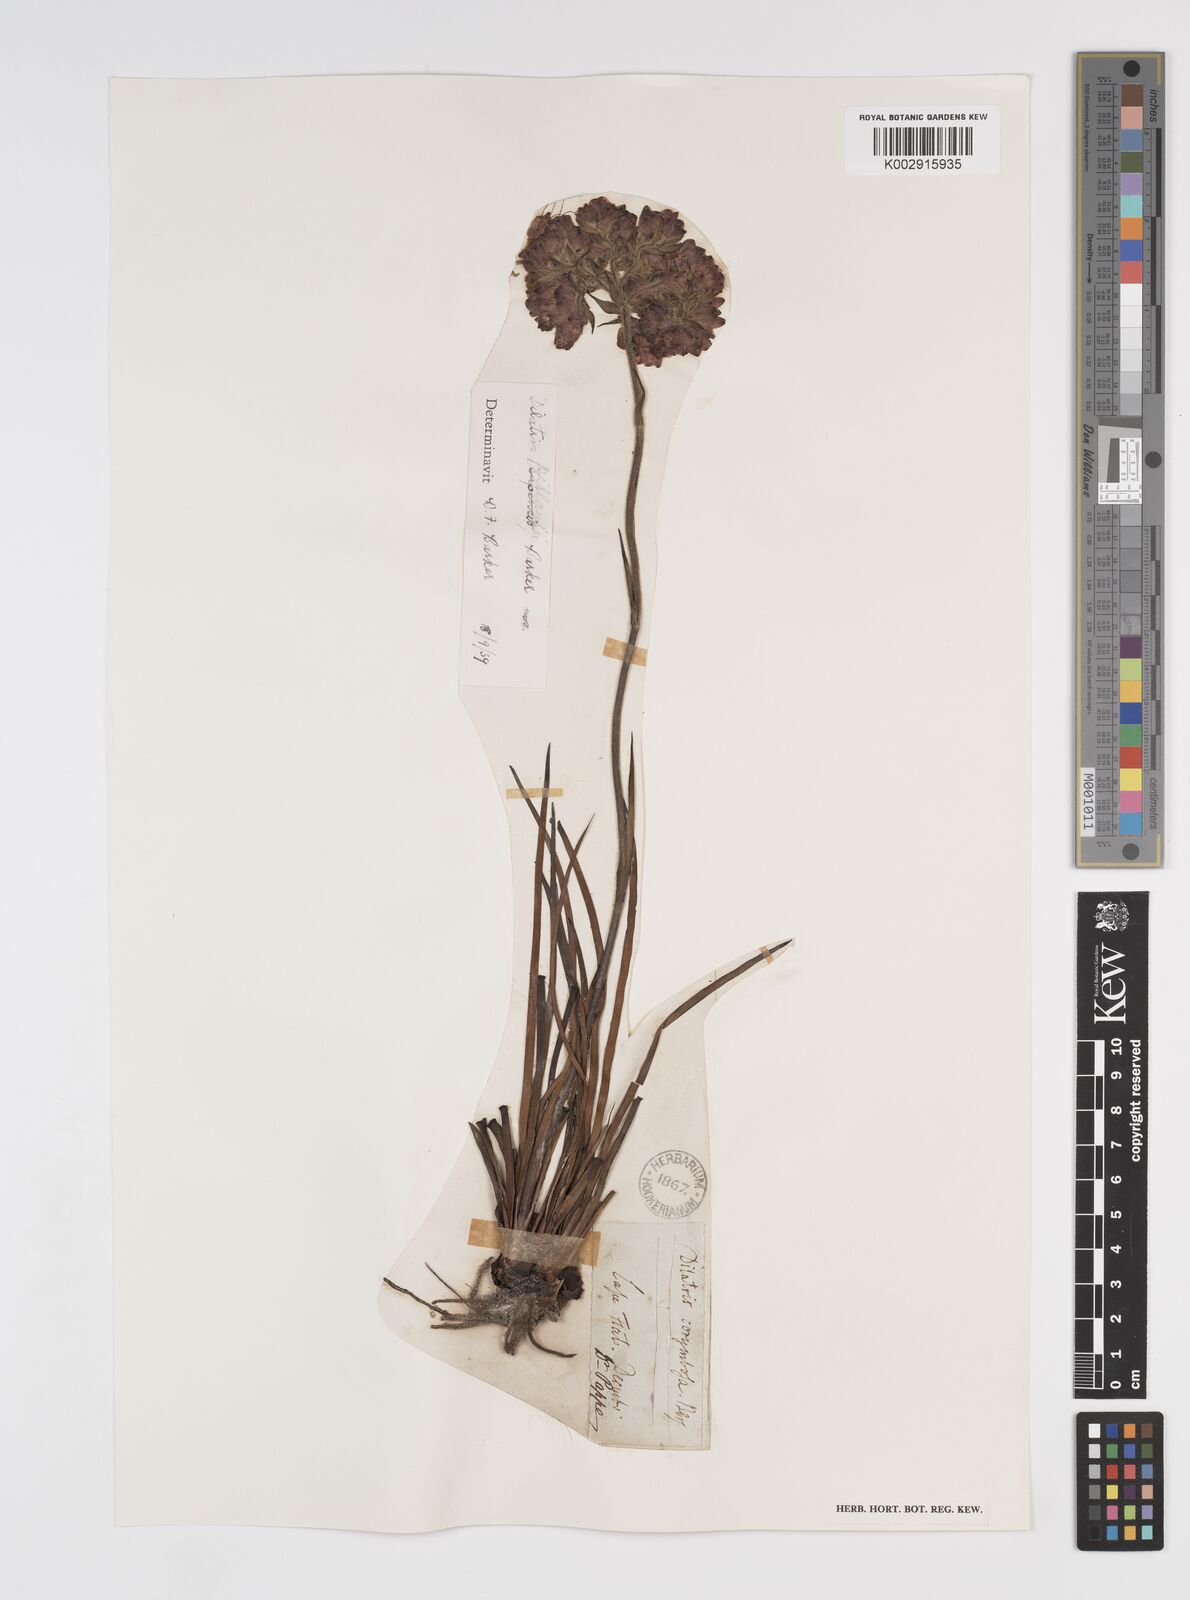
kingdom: Plantae
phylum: Tracheophyta
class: Liliopsida
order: Commelinales
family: Haemodoraceae
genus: Dilatris
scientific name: Dilatris pillansii
